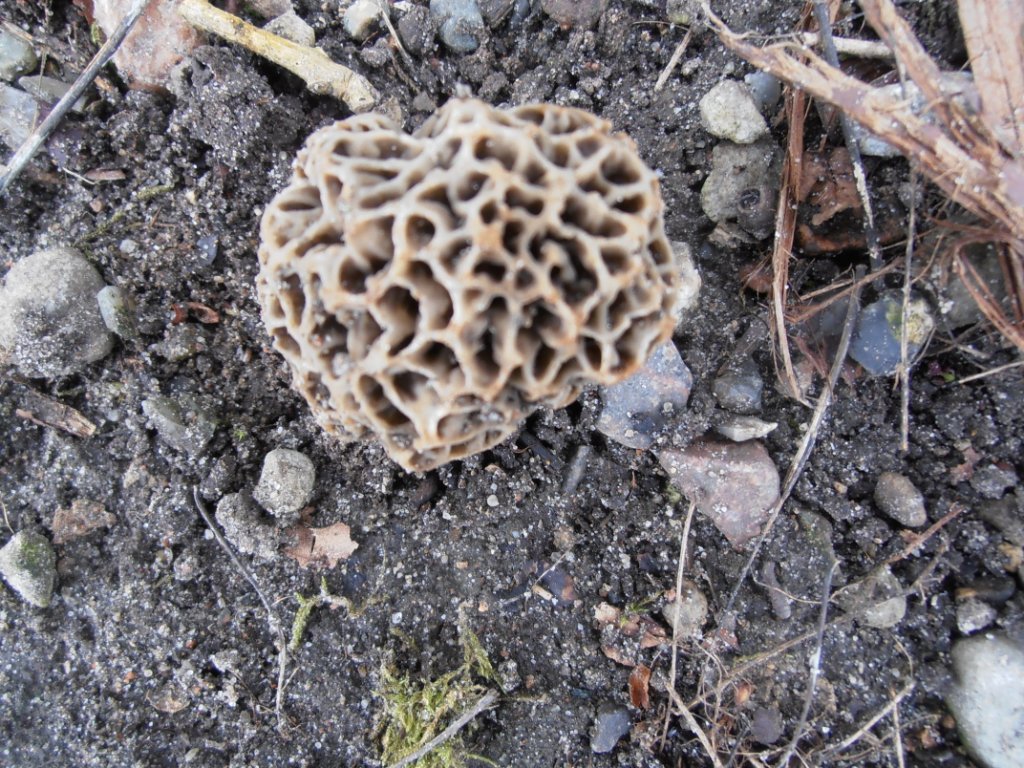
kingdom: Fungi
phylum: Ascomycota
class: Pezizomycetes
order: Pezizales
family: Morchellaceae
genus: Morchella
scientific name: Morchella esculenta
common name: spiselig morkel
